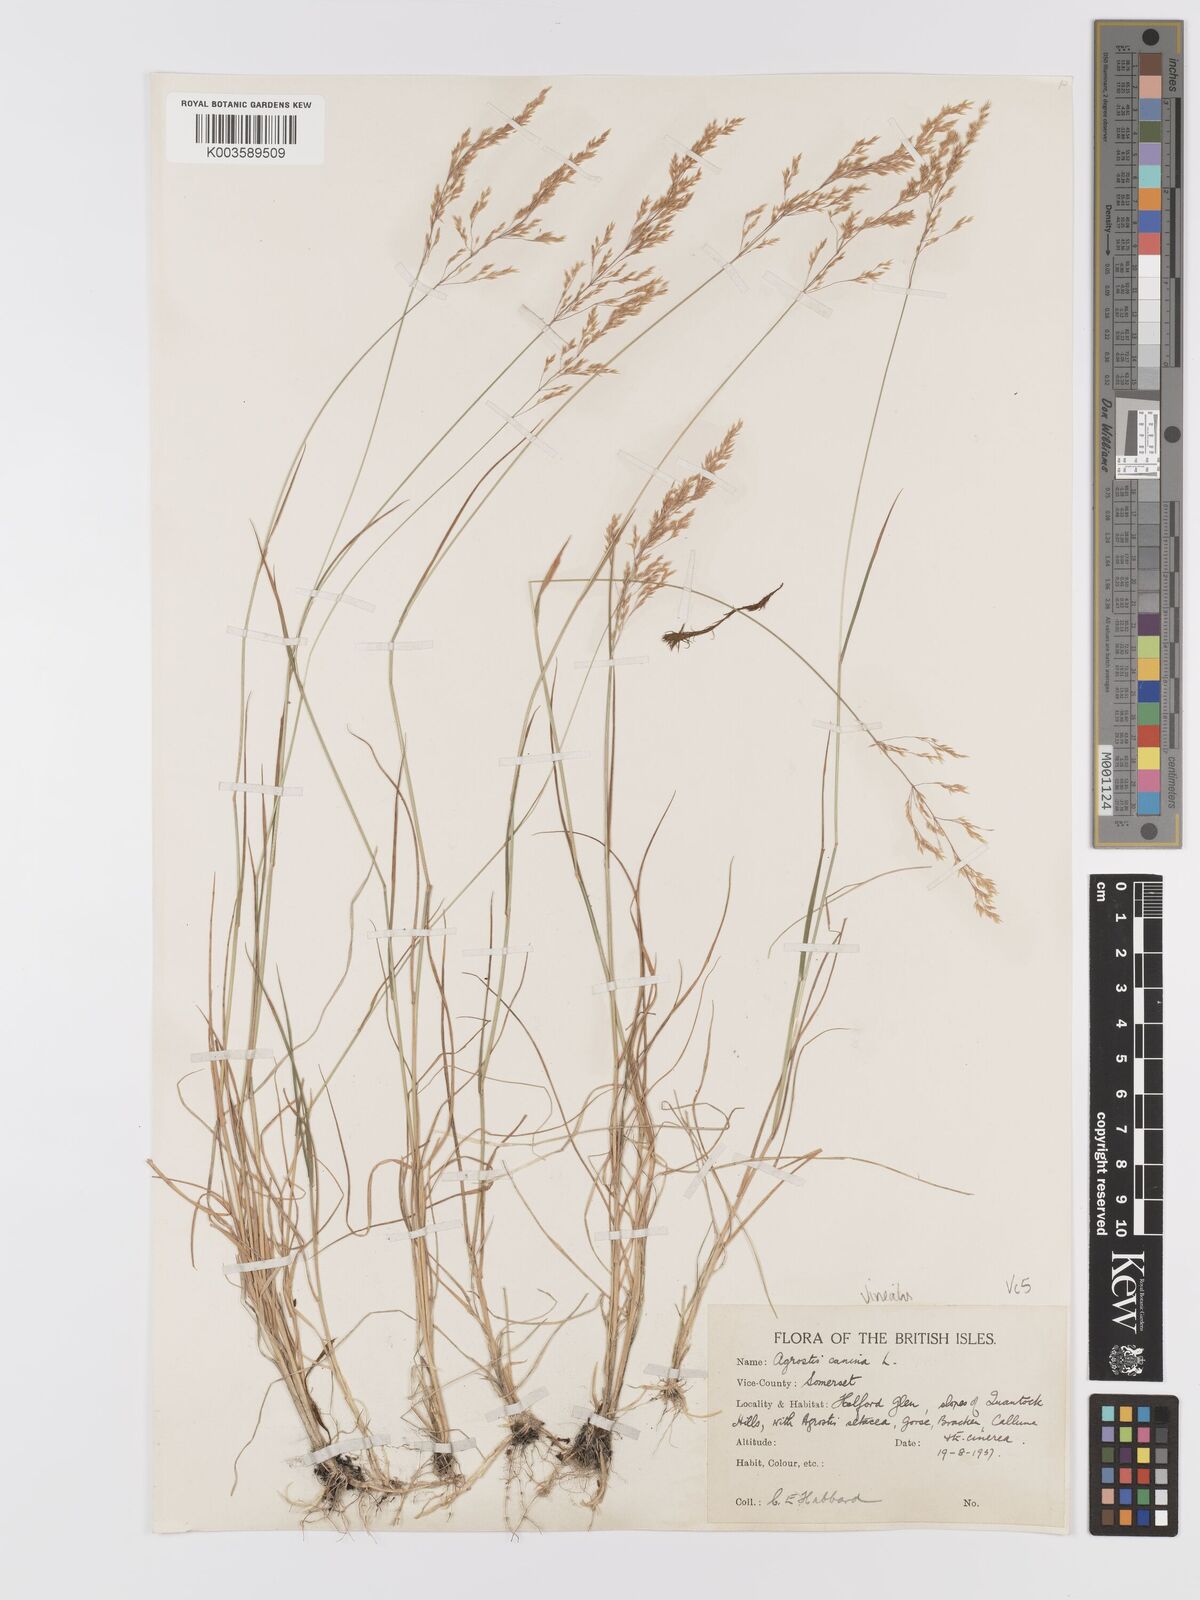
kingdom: Plantae
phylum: Tracheophyta
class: Liliopsida
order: Poales
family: Poaceae
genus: Agrostis
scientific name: Agrostis
